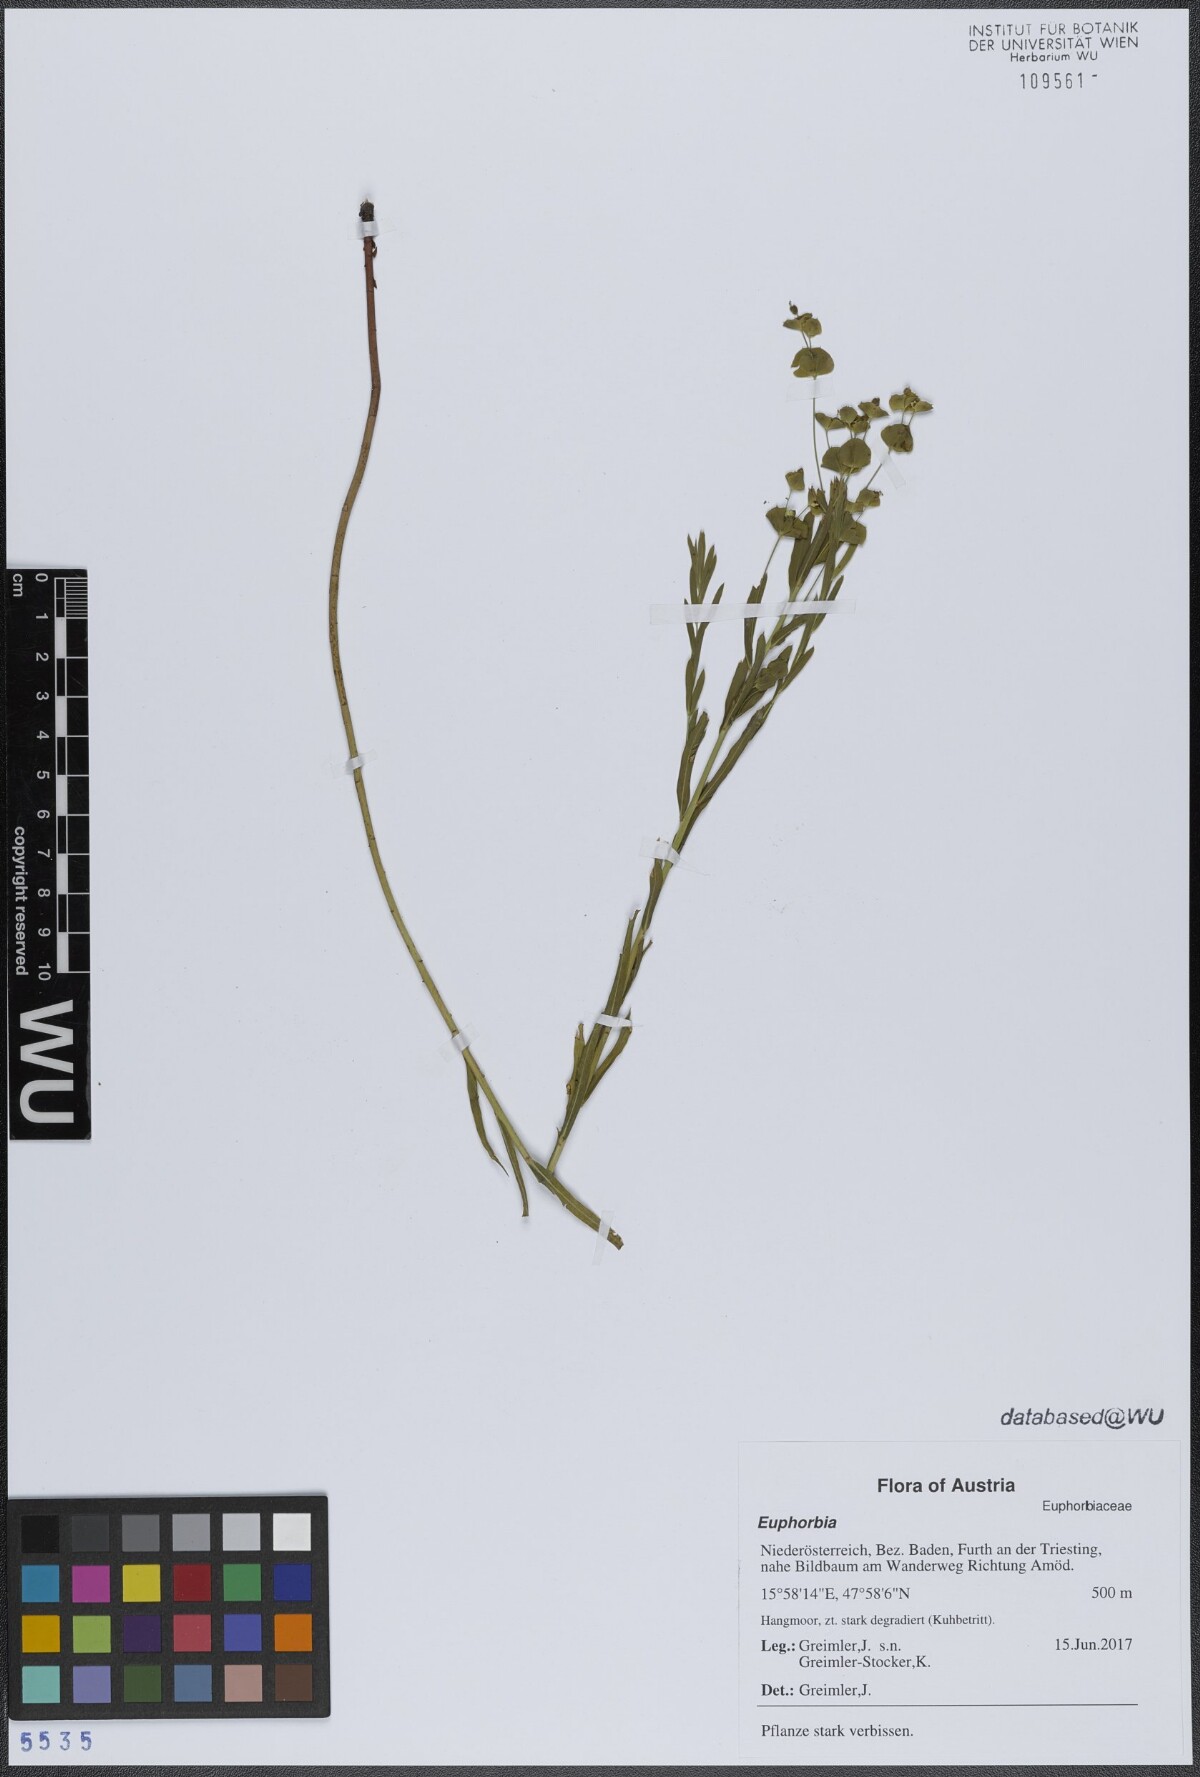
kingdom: Plantae
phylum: Tracheophyta
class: Magnoliopsida
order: Malpighiales
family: Euphorbiaceae
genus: Euphorbia
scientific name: Euphorbia
